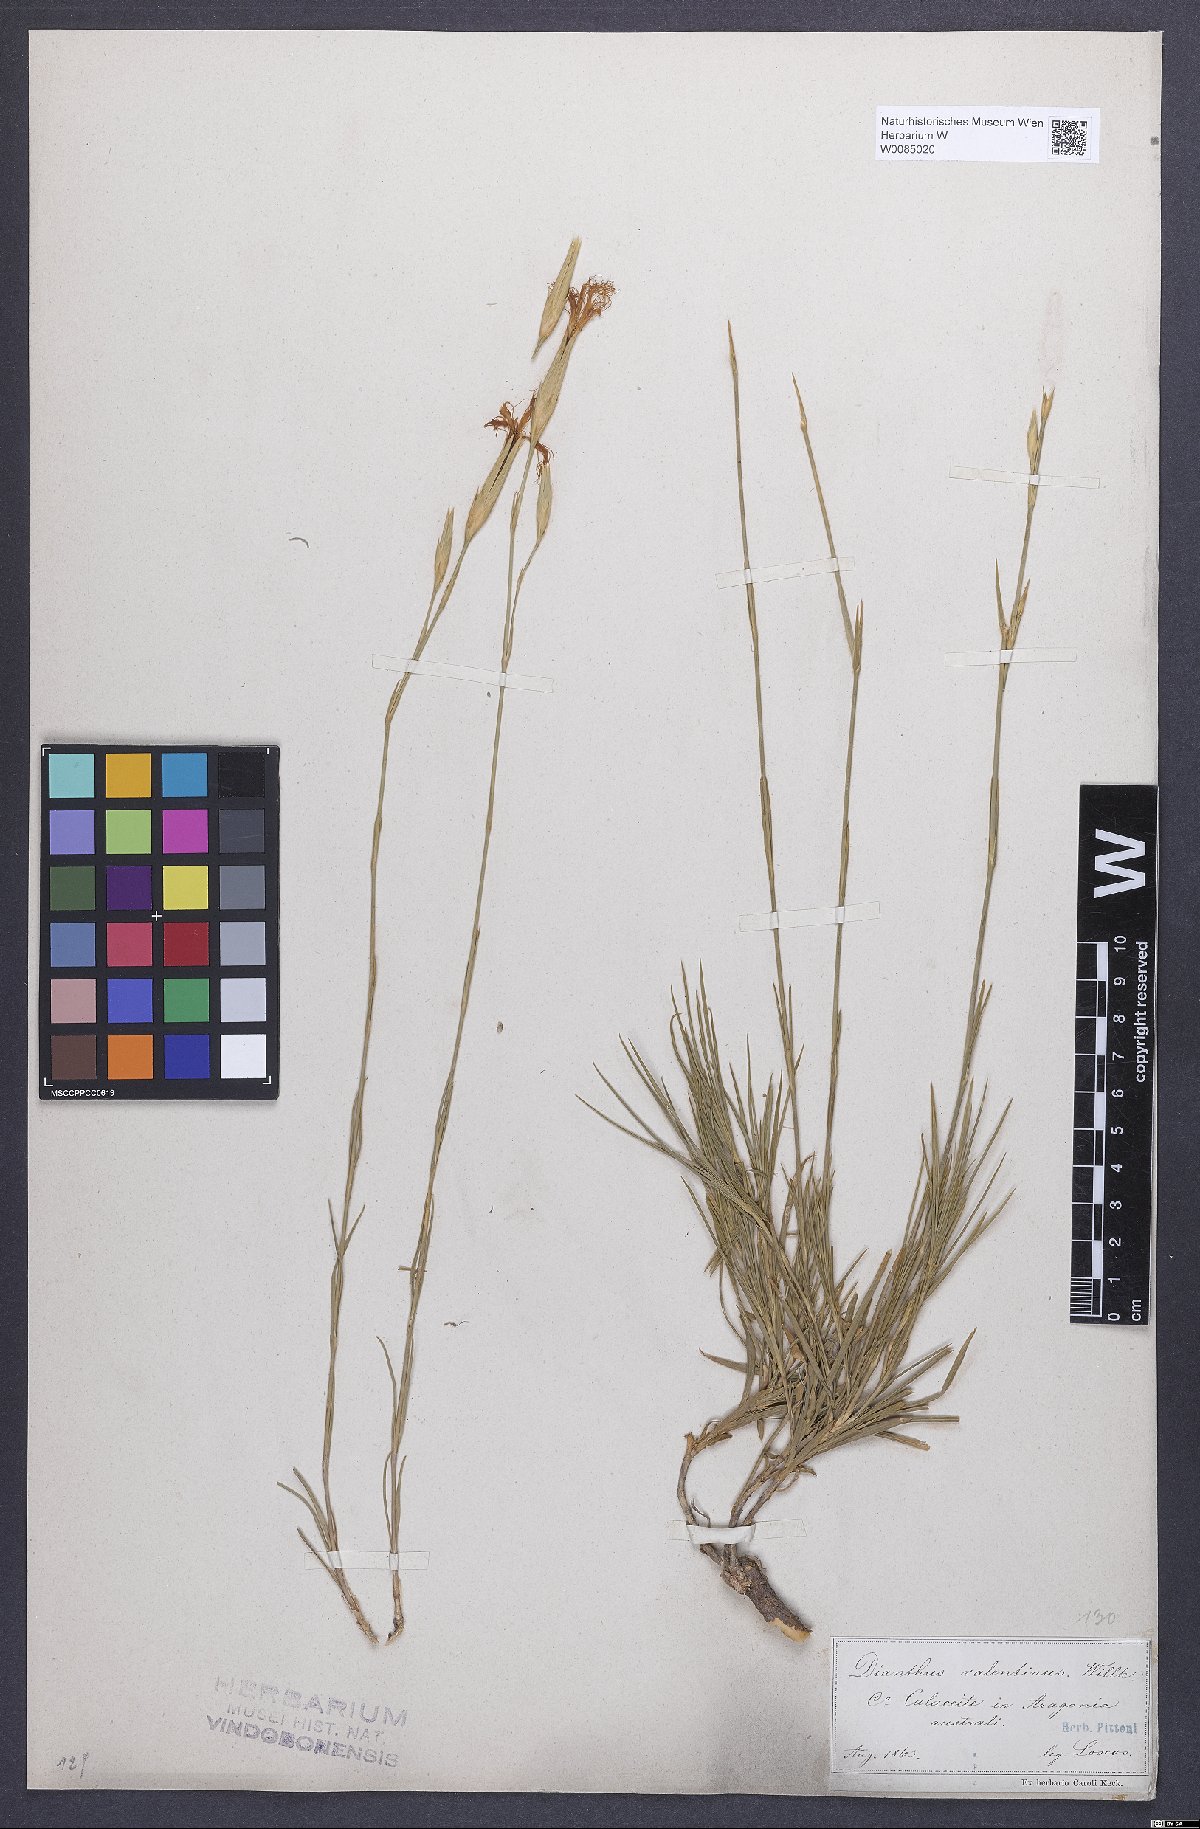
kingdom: Plantae
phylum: Tracheophyta
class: Magnoliopsida
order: Caryophyllales
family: Caryophyllaceae
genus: Dianthus
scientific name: Dianthus broteri
